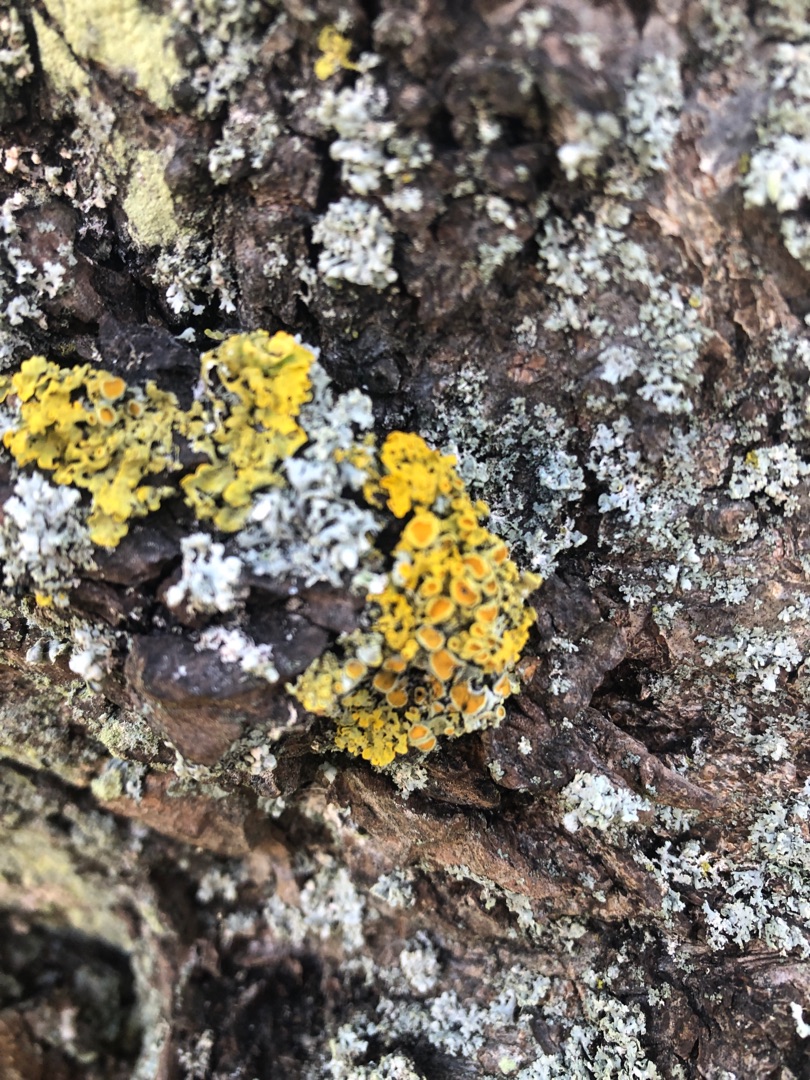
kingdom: Fungi
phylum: Ascomycota
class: Lecanoromycetes
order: Teloschistales
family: Teloschistaceae
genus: Xanthoria
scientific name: Xanthoria parietina
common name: Almindelig væggelav
